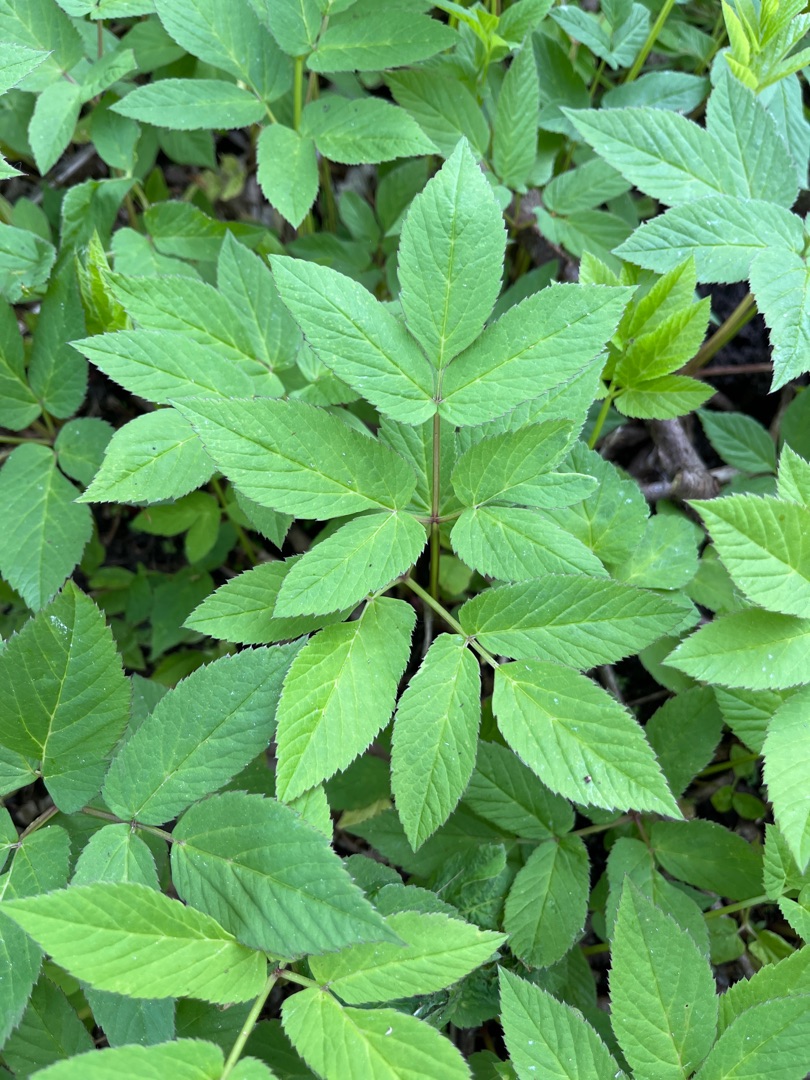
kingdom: Plantae
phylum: Tracheophyta
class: Magnoliopsida
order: Apiales
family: Apiaceae
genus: Aegopodium
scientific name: Aegopodium podagraria
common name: Skvalderkål
